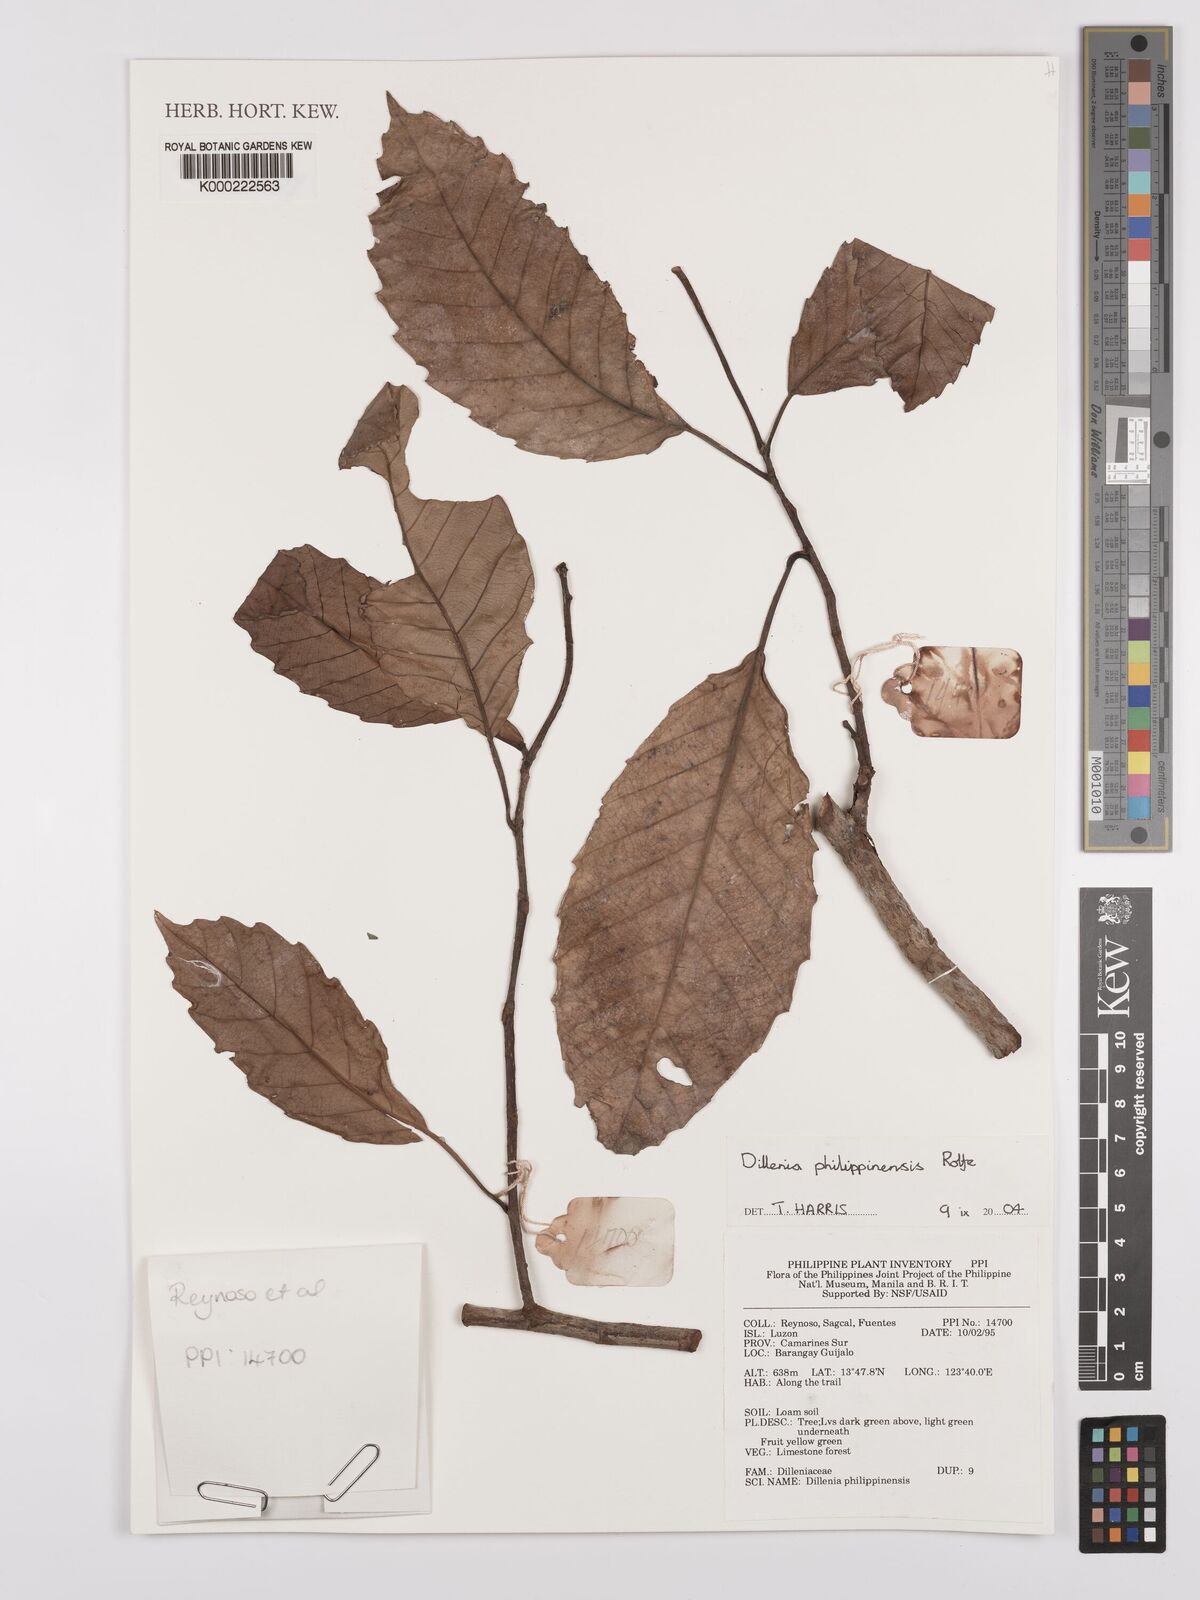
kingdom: Plantae
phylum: Tracheophyta
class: Magnoliopsida
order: Dilleniales
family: Dilleniaceae
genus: Dillenia
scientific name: Dillenia philippinensis
